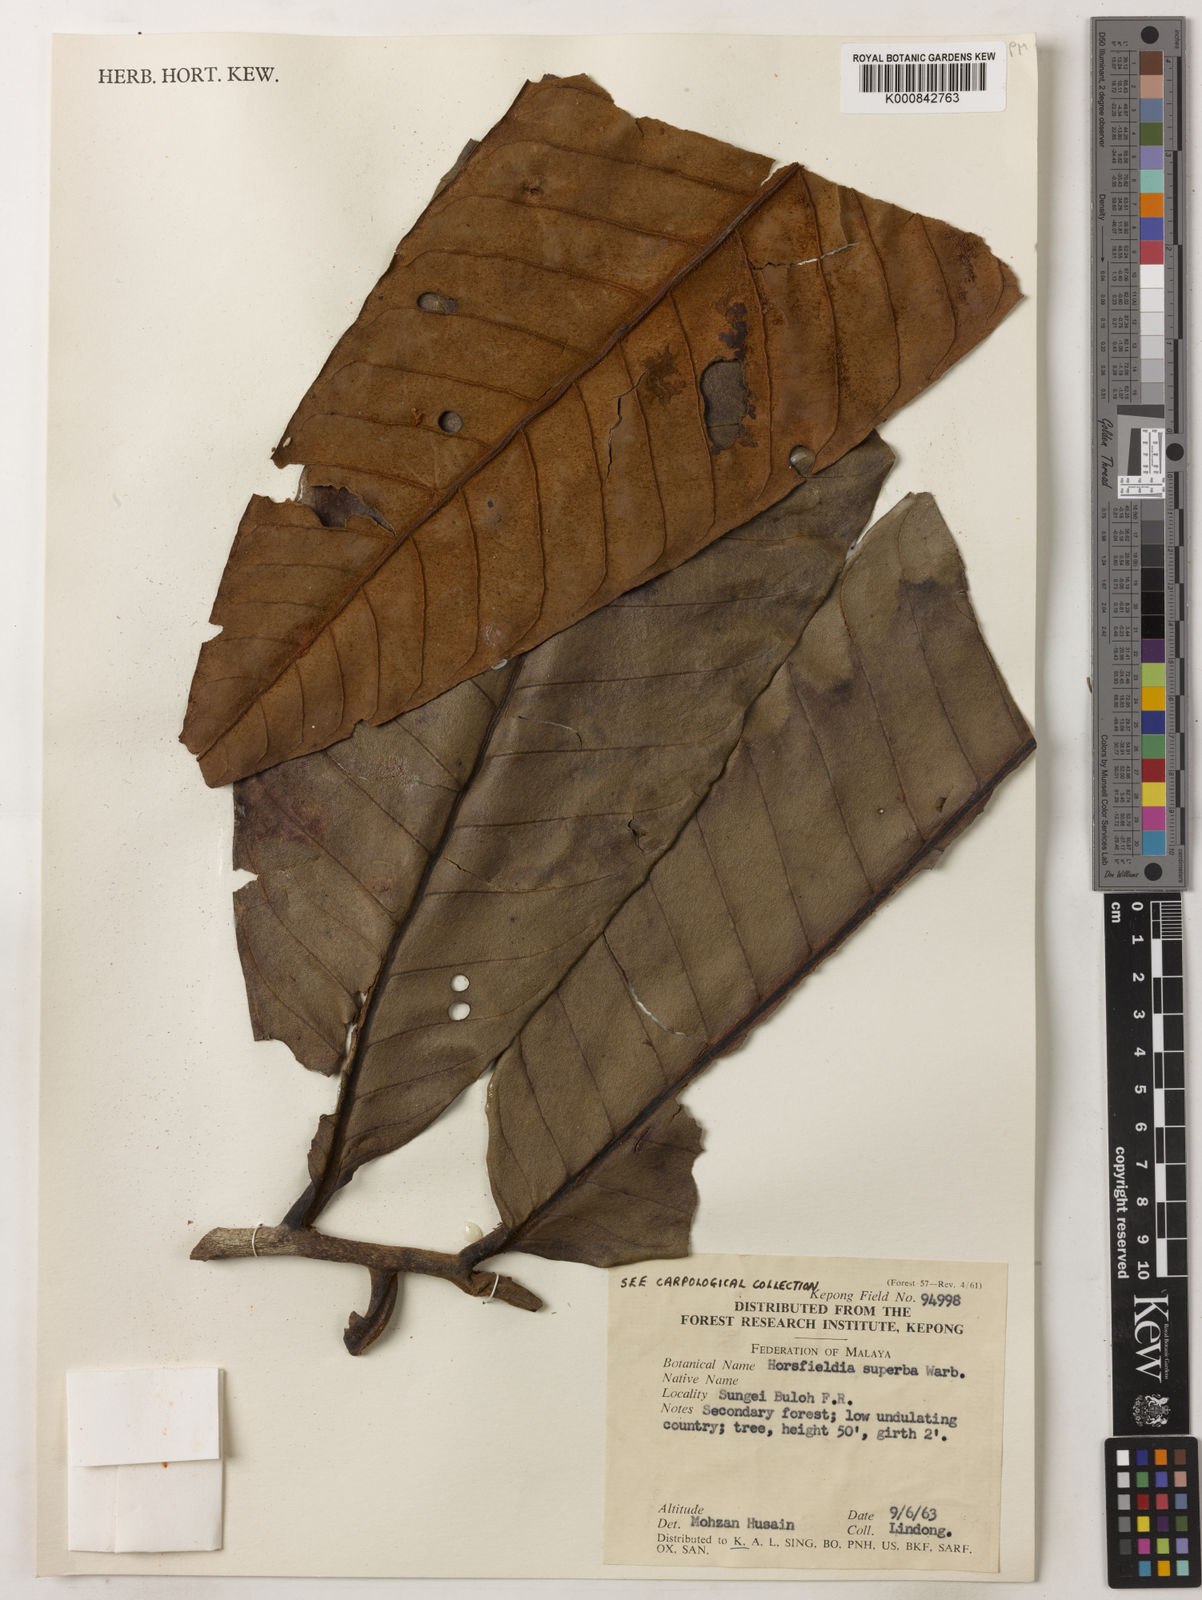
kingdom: Plantae
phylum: Tracheophyta
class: Magnoliopsida
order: Magnoliales
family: Myristicaceae
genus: Horsfieldia
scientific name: Horsfieldia superba
